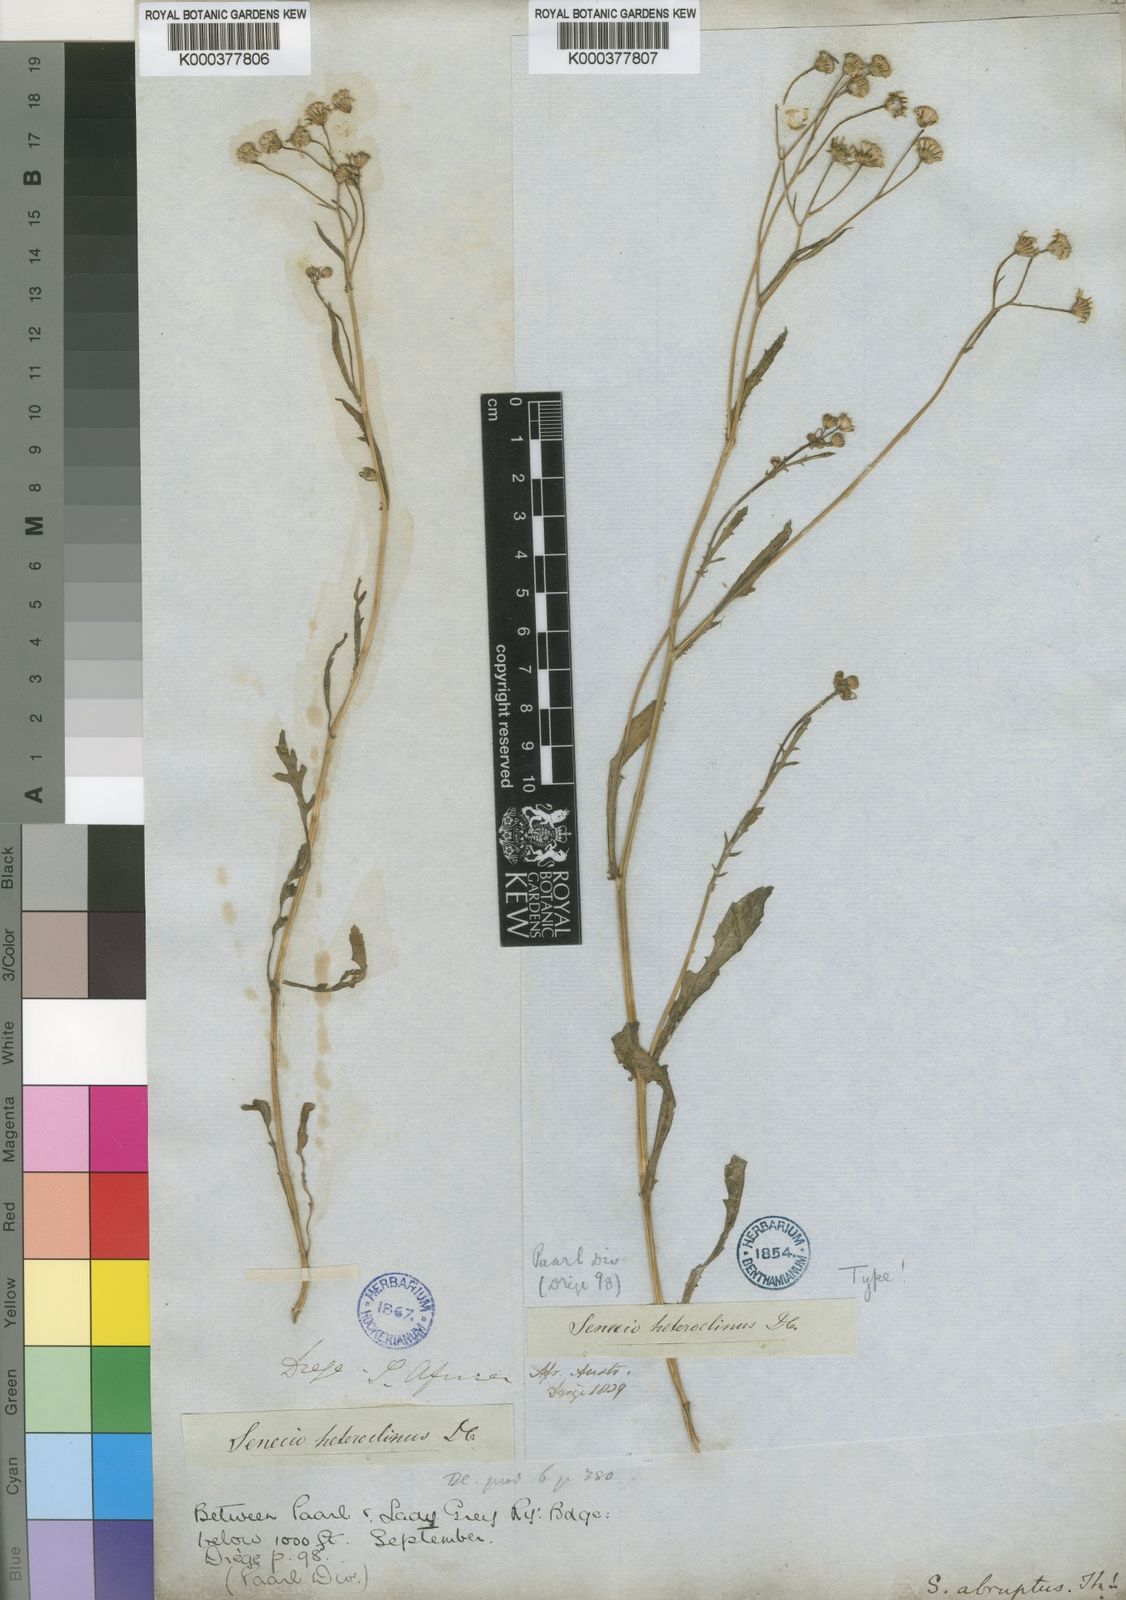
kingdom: Plantae
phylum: Tracheophyta
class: Magnoliopsida
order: Asterales
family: Asteraceae
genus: Senecio
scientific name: Senecio abruptus
